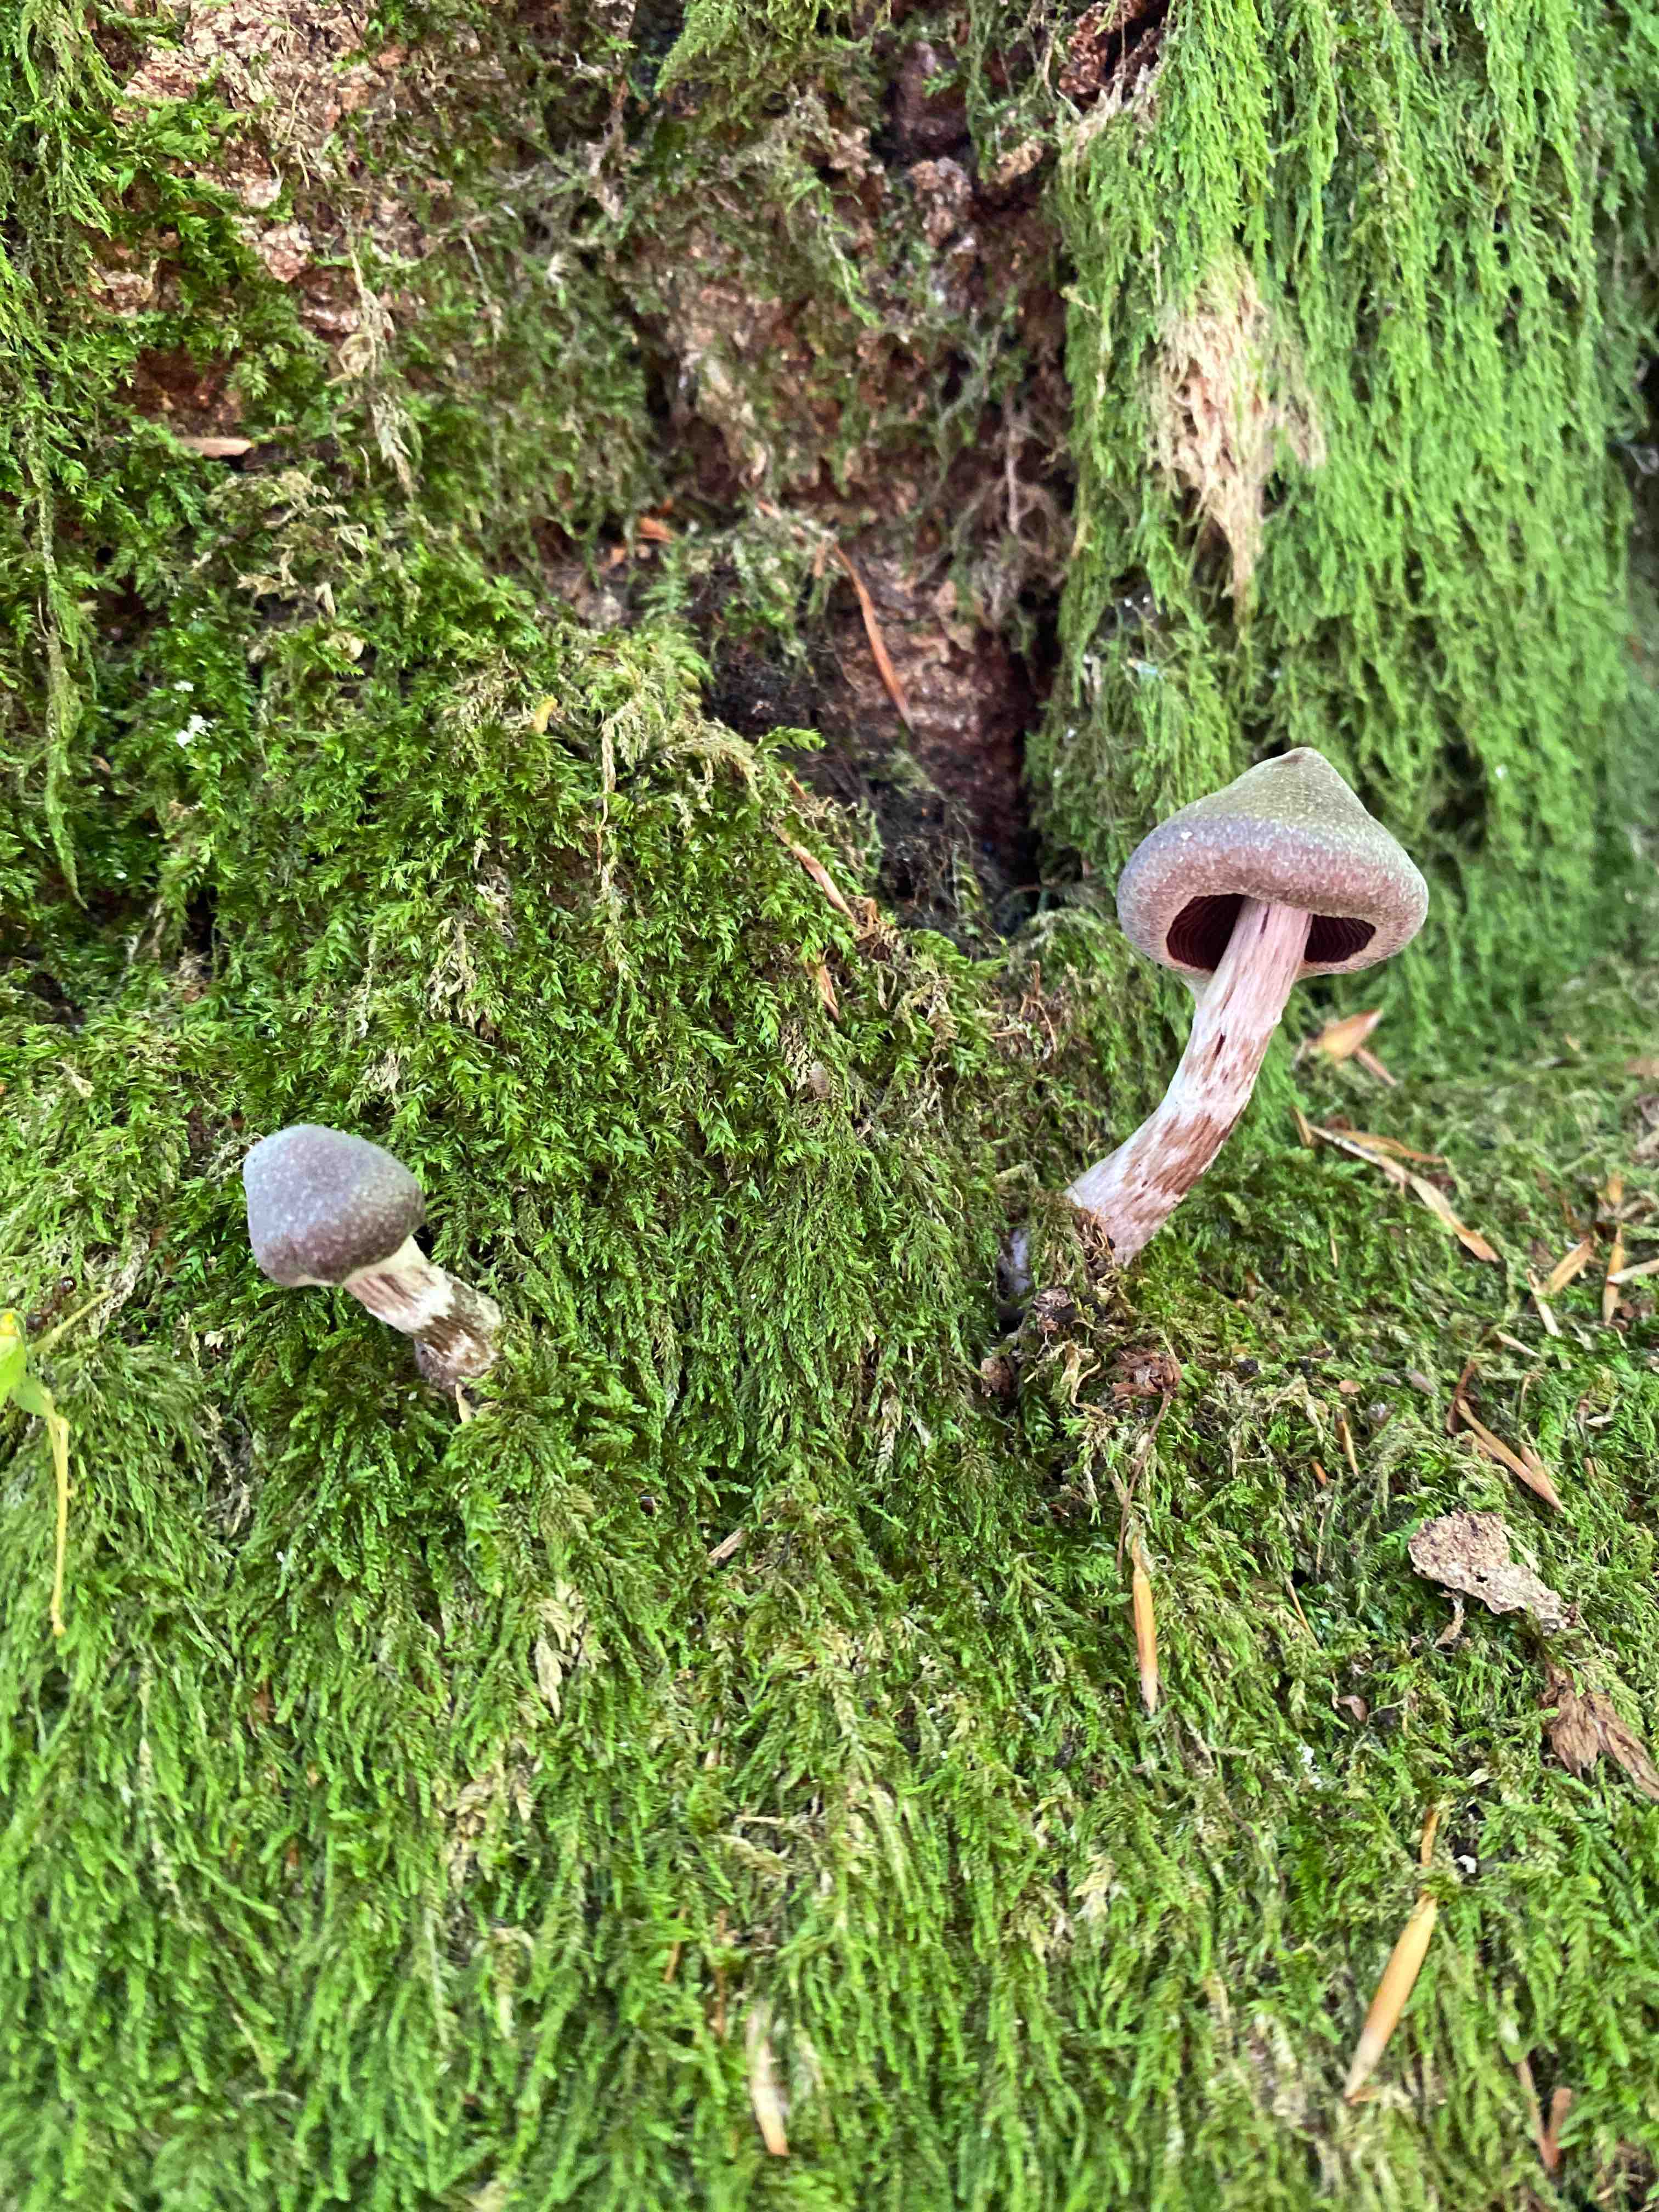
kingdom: Fungi
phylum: Basidiomycota
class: Agaricomycetes
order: Agaricales
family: Cortinariaceae
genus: Cortinarius
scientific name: Cortinarius
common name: pelargonie-slørhat
